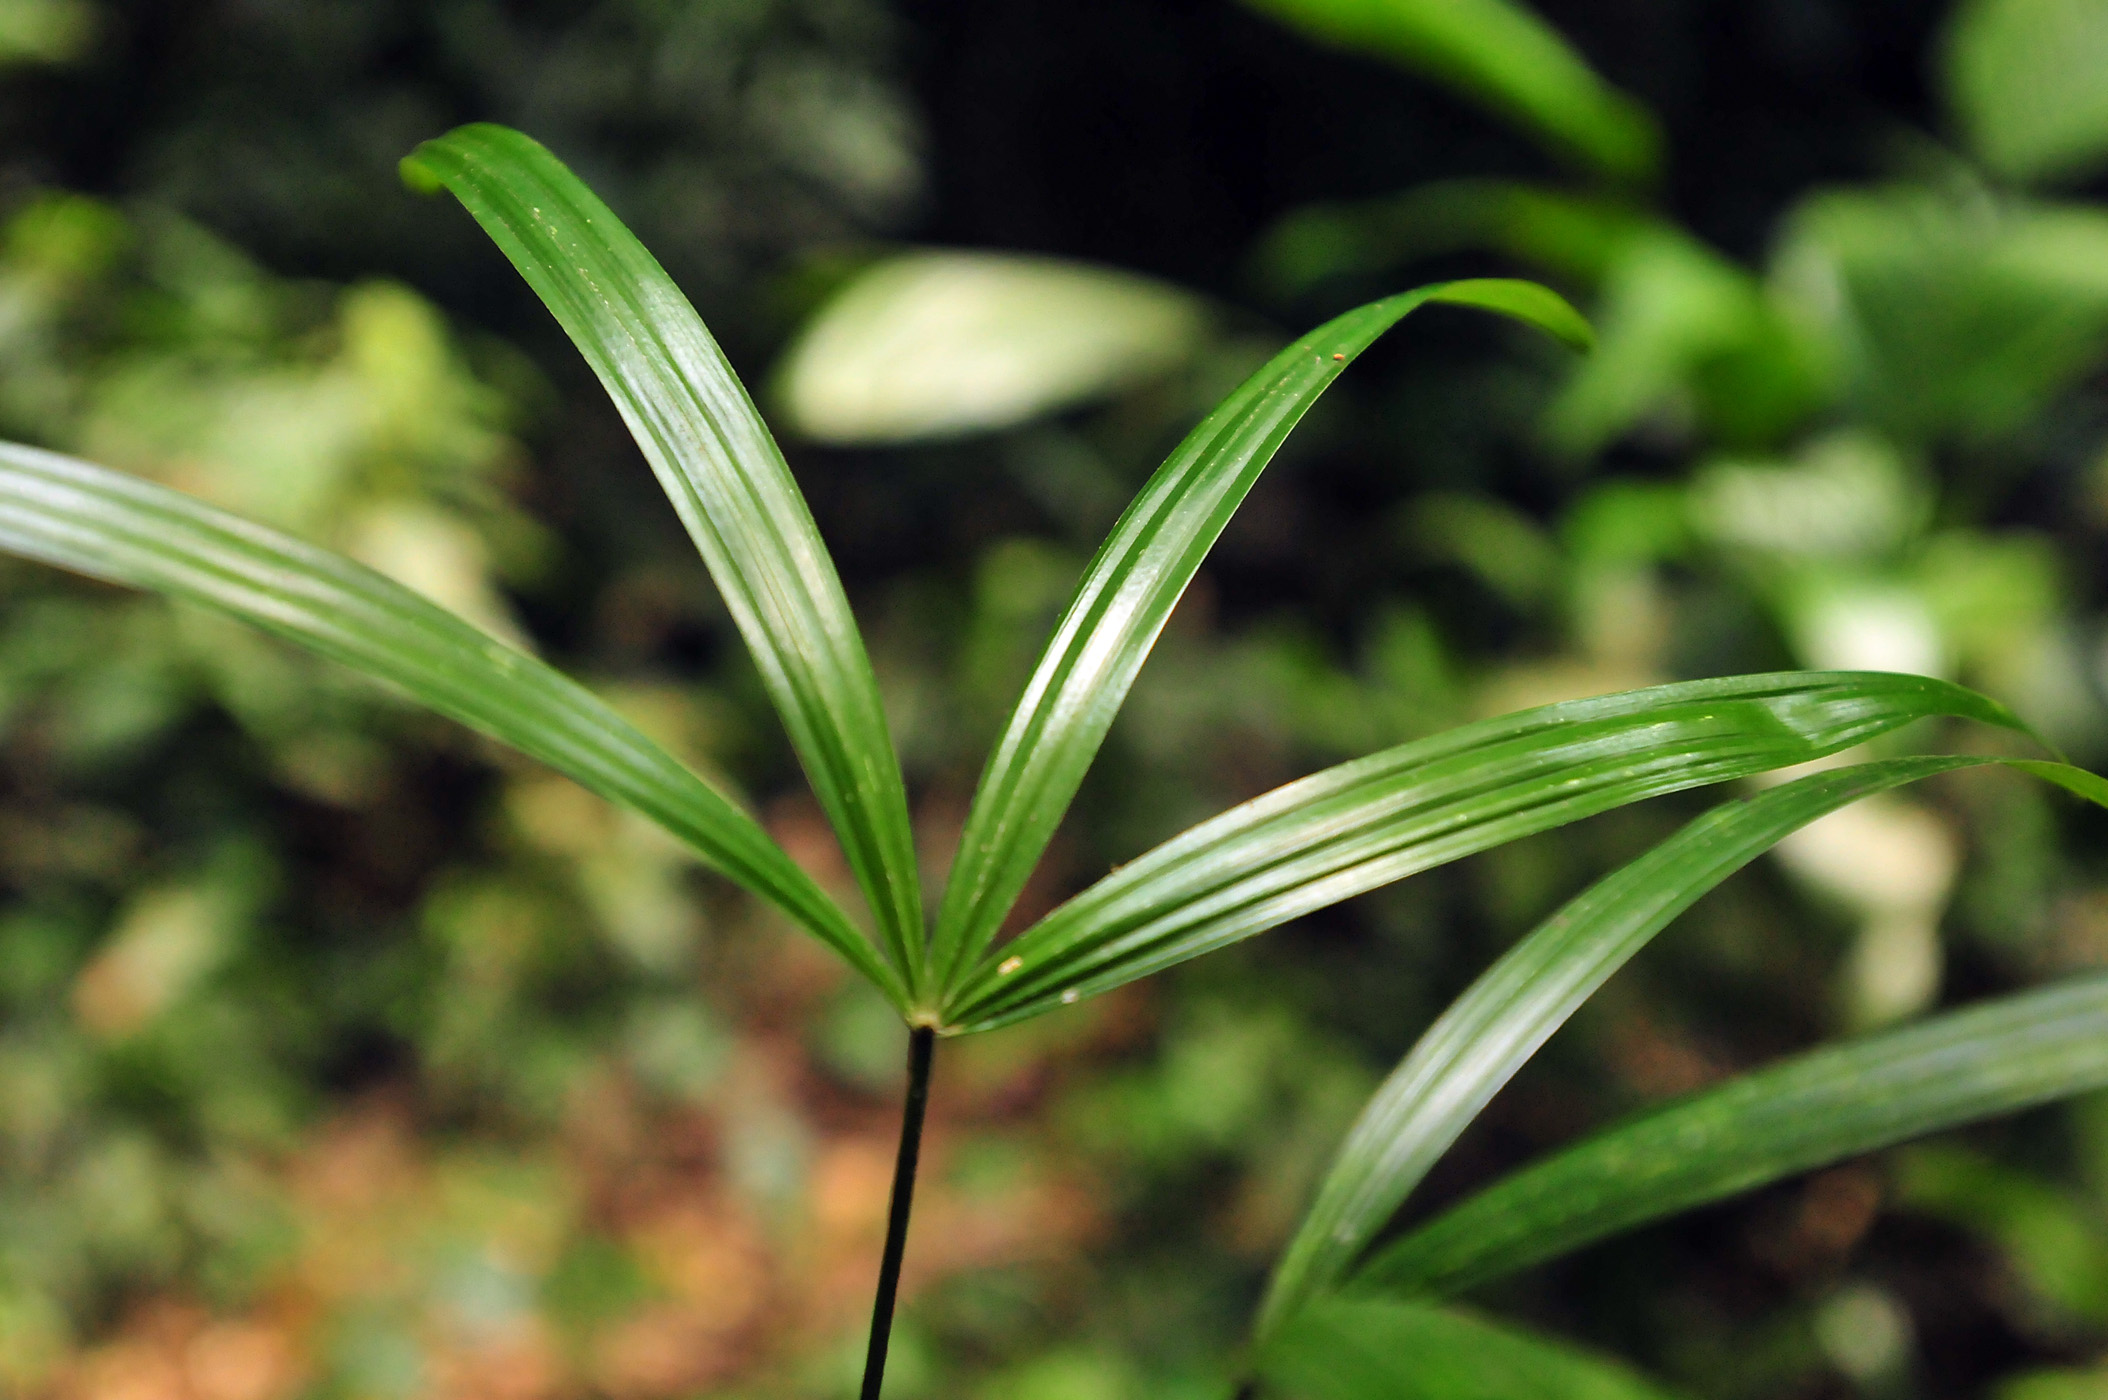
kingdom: Plantae
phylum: Tracheophyta
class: Liliopsida
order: Arecales
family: Arecaceae
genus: Chelyocarpus
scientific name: Chelyocarpus ulei
